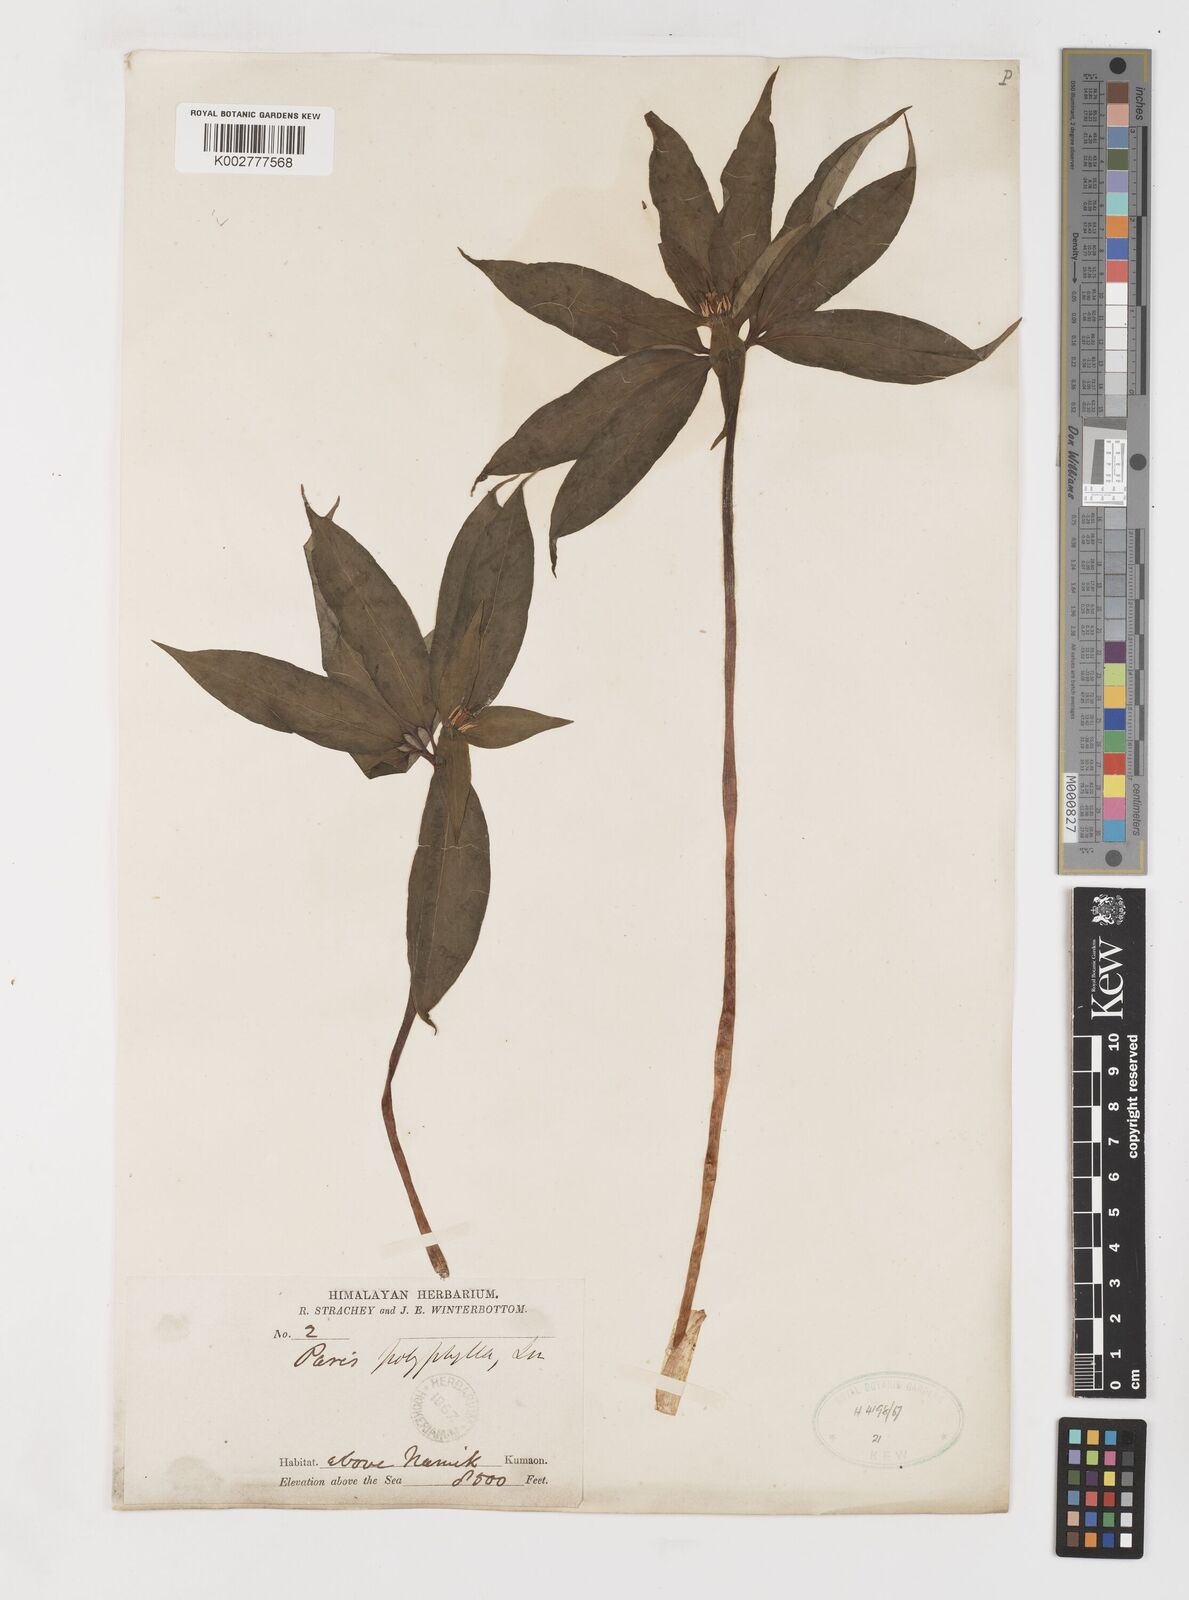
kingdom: Plantae
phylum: Tracheophyta
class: Liliopsida
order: Liliales
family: Melanthiaceae
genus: Paris
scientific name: Paris polyphylla
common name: Love apple
